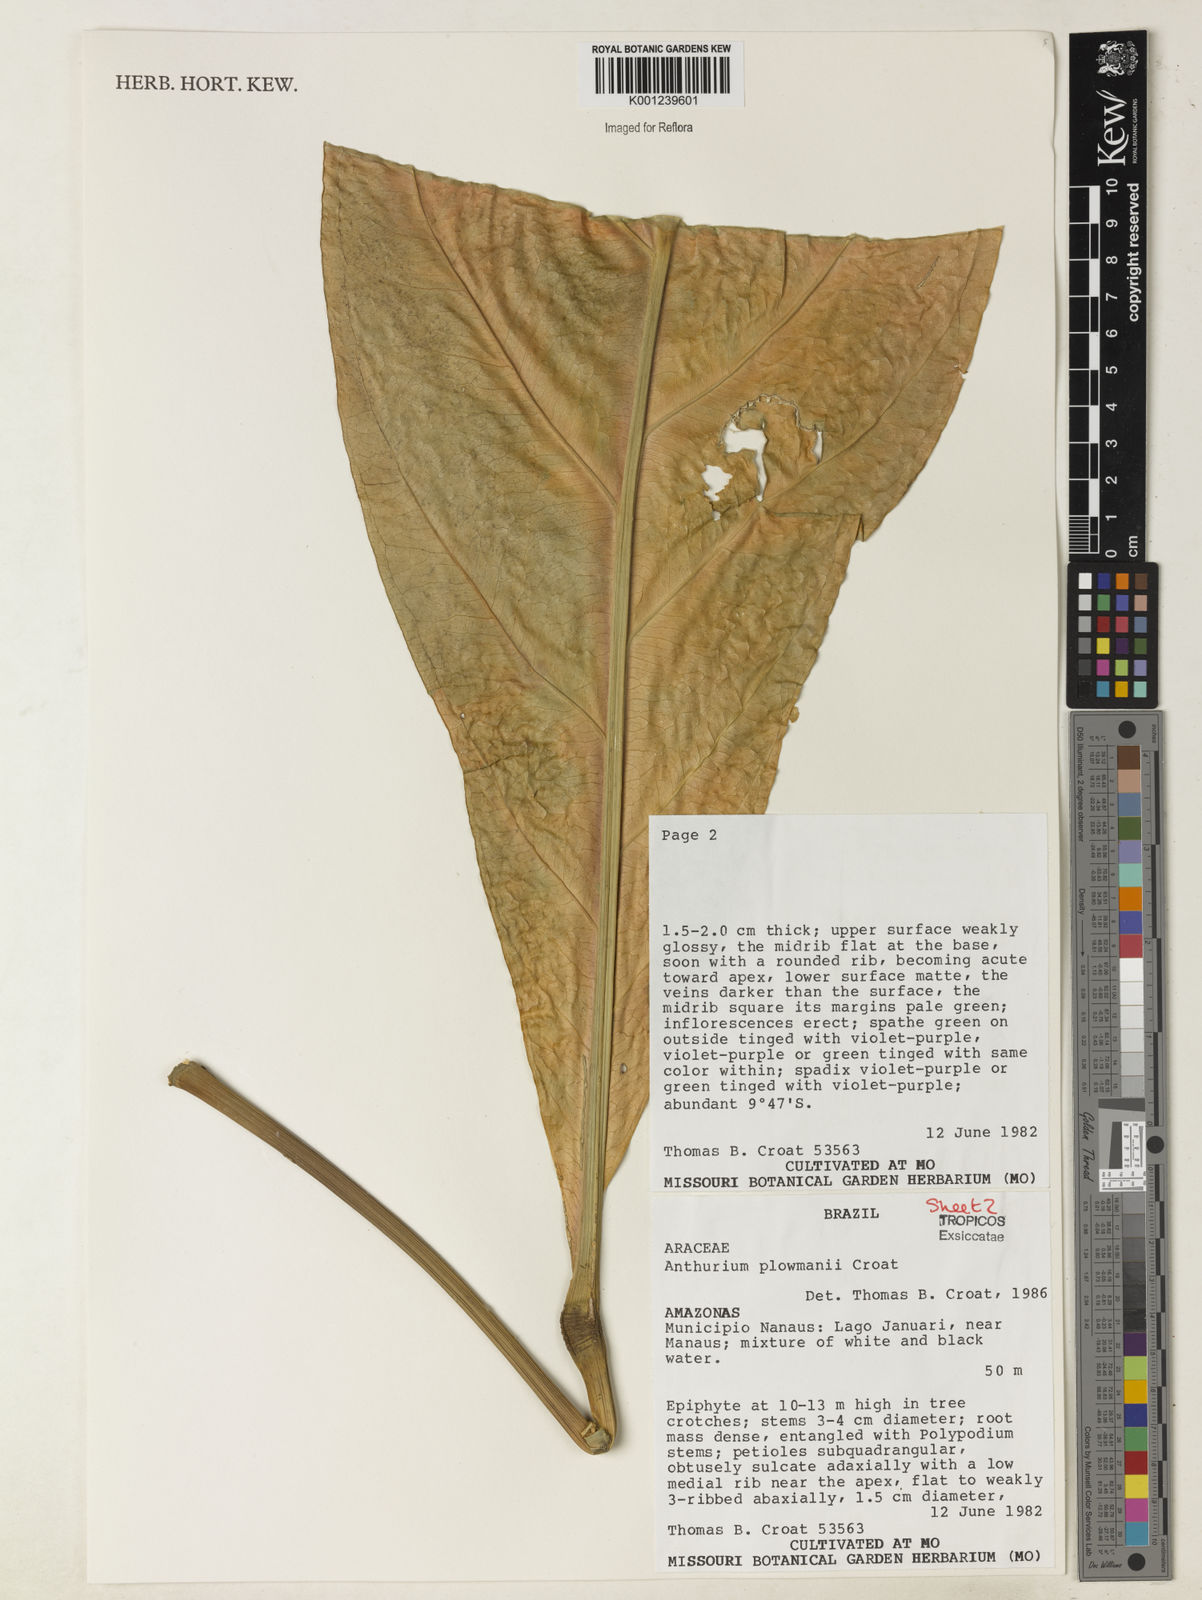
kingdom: Plantae
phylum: Tracheophyta
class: Liliopsida
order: Alismatales
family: Araceae
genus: Anthurium
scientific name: Anthurium plowmanii
